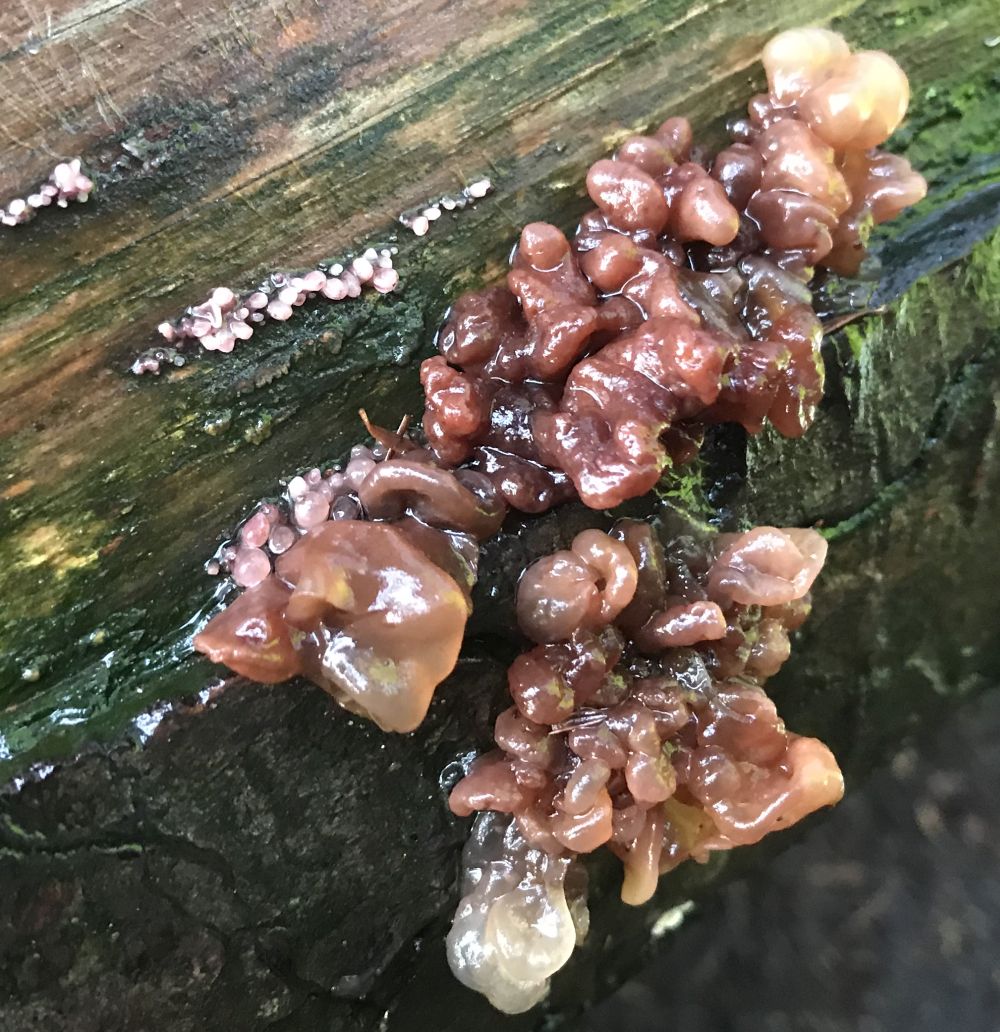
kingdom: Fungi
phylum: Basidiomycota
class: Tremellomycetes
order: Tremellales
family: Tremellaceae
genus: Phaeotremella
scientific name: Phaeotremella foliacea
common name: brun bævresvamp
